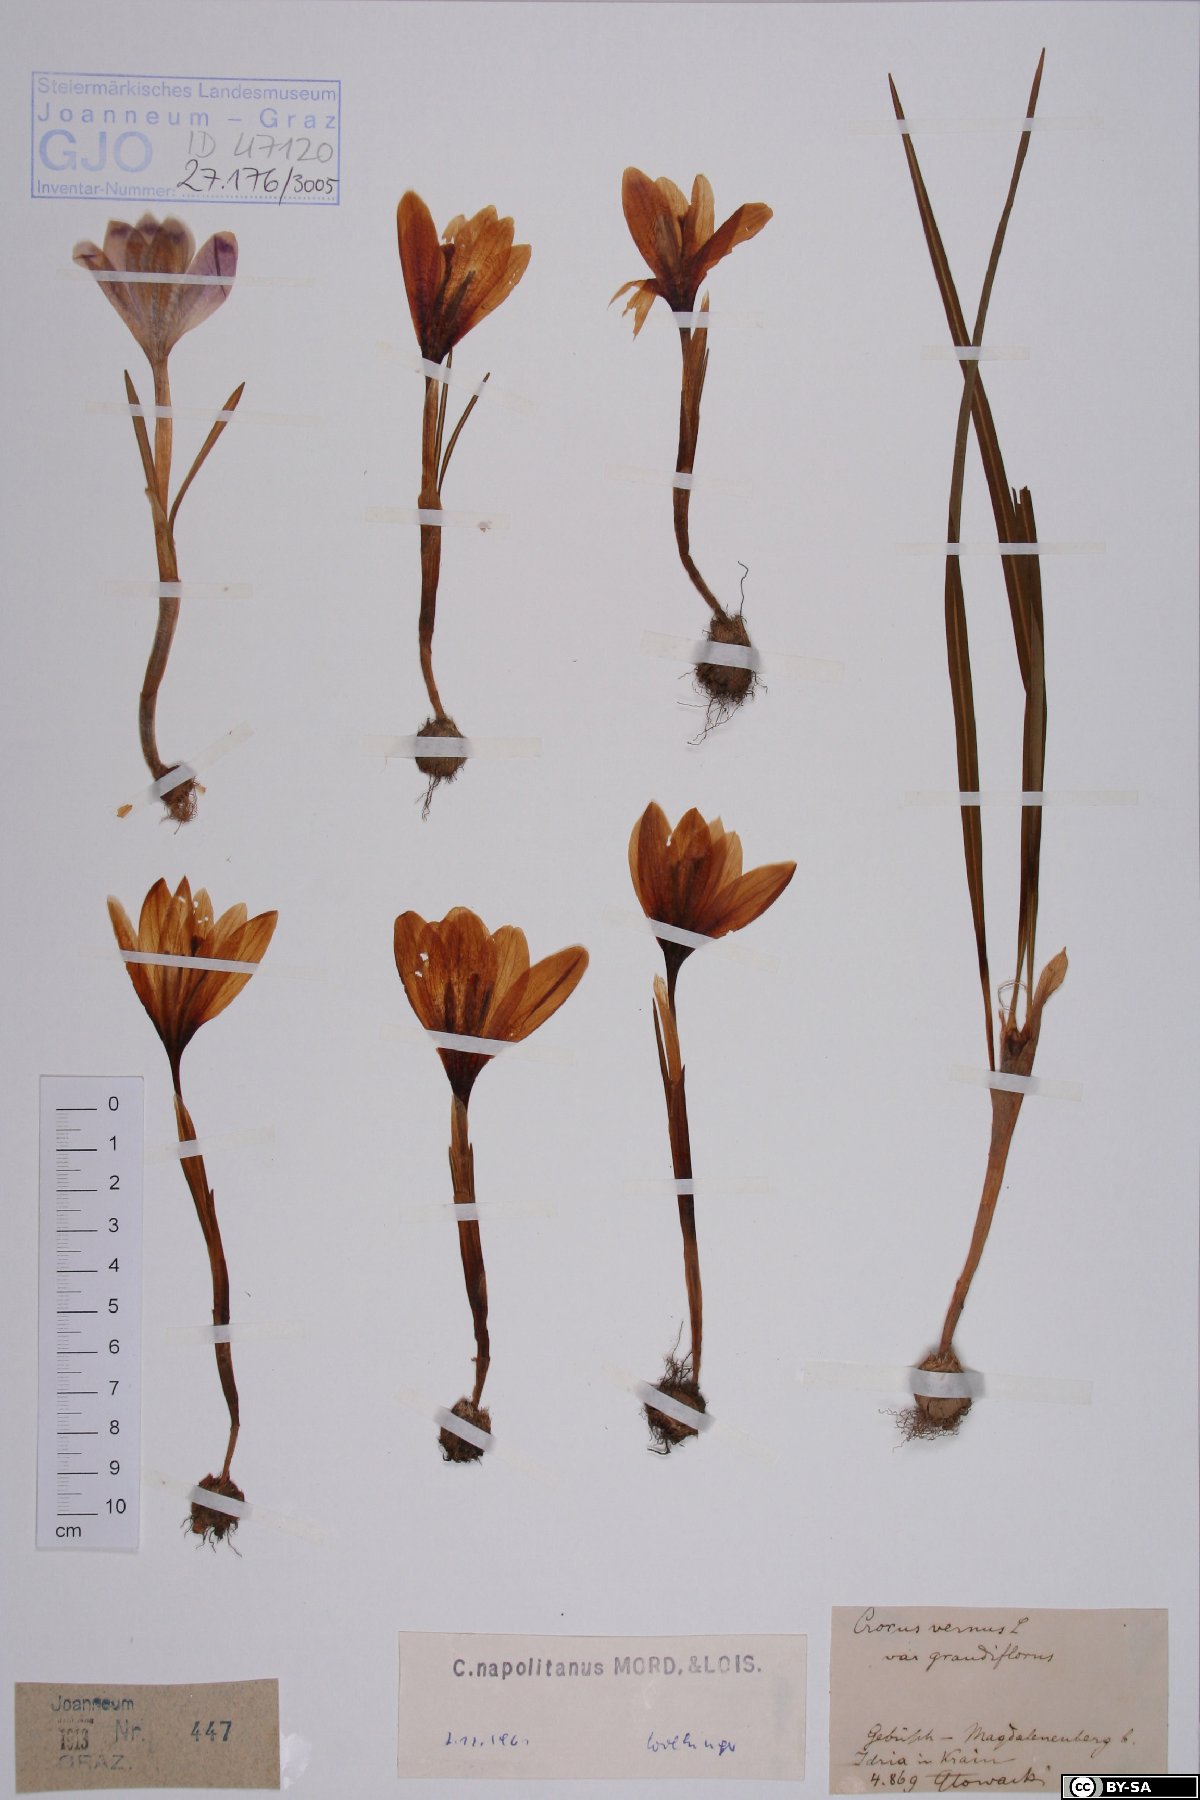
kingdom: Plantae
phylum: Tracheophyta
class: Liliopsida
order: Asparagales
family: Iridaceae
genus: Crocus
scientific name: Crocus vernus
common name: Spring crocus
